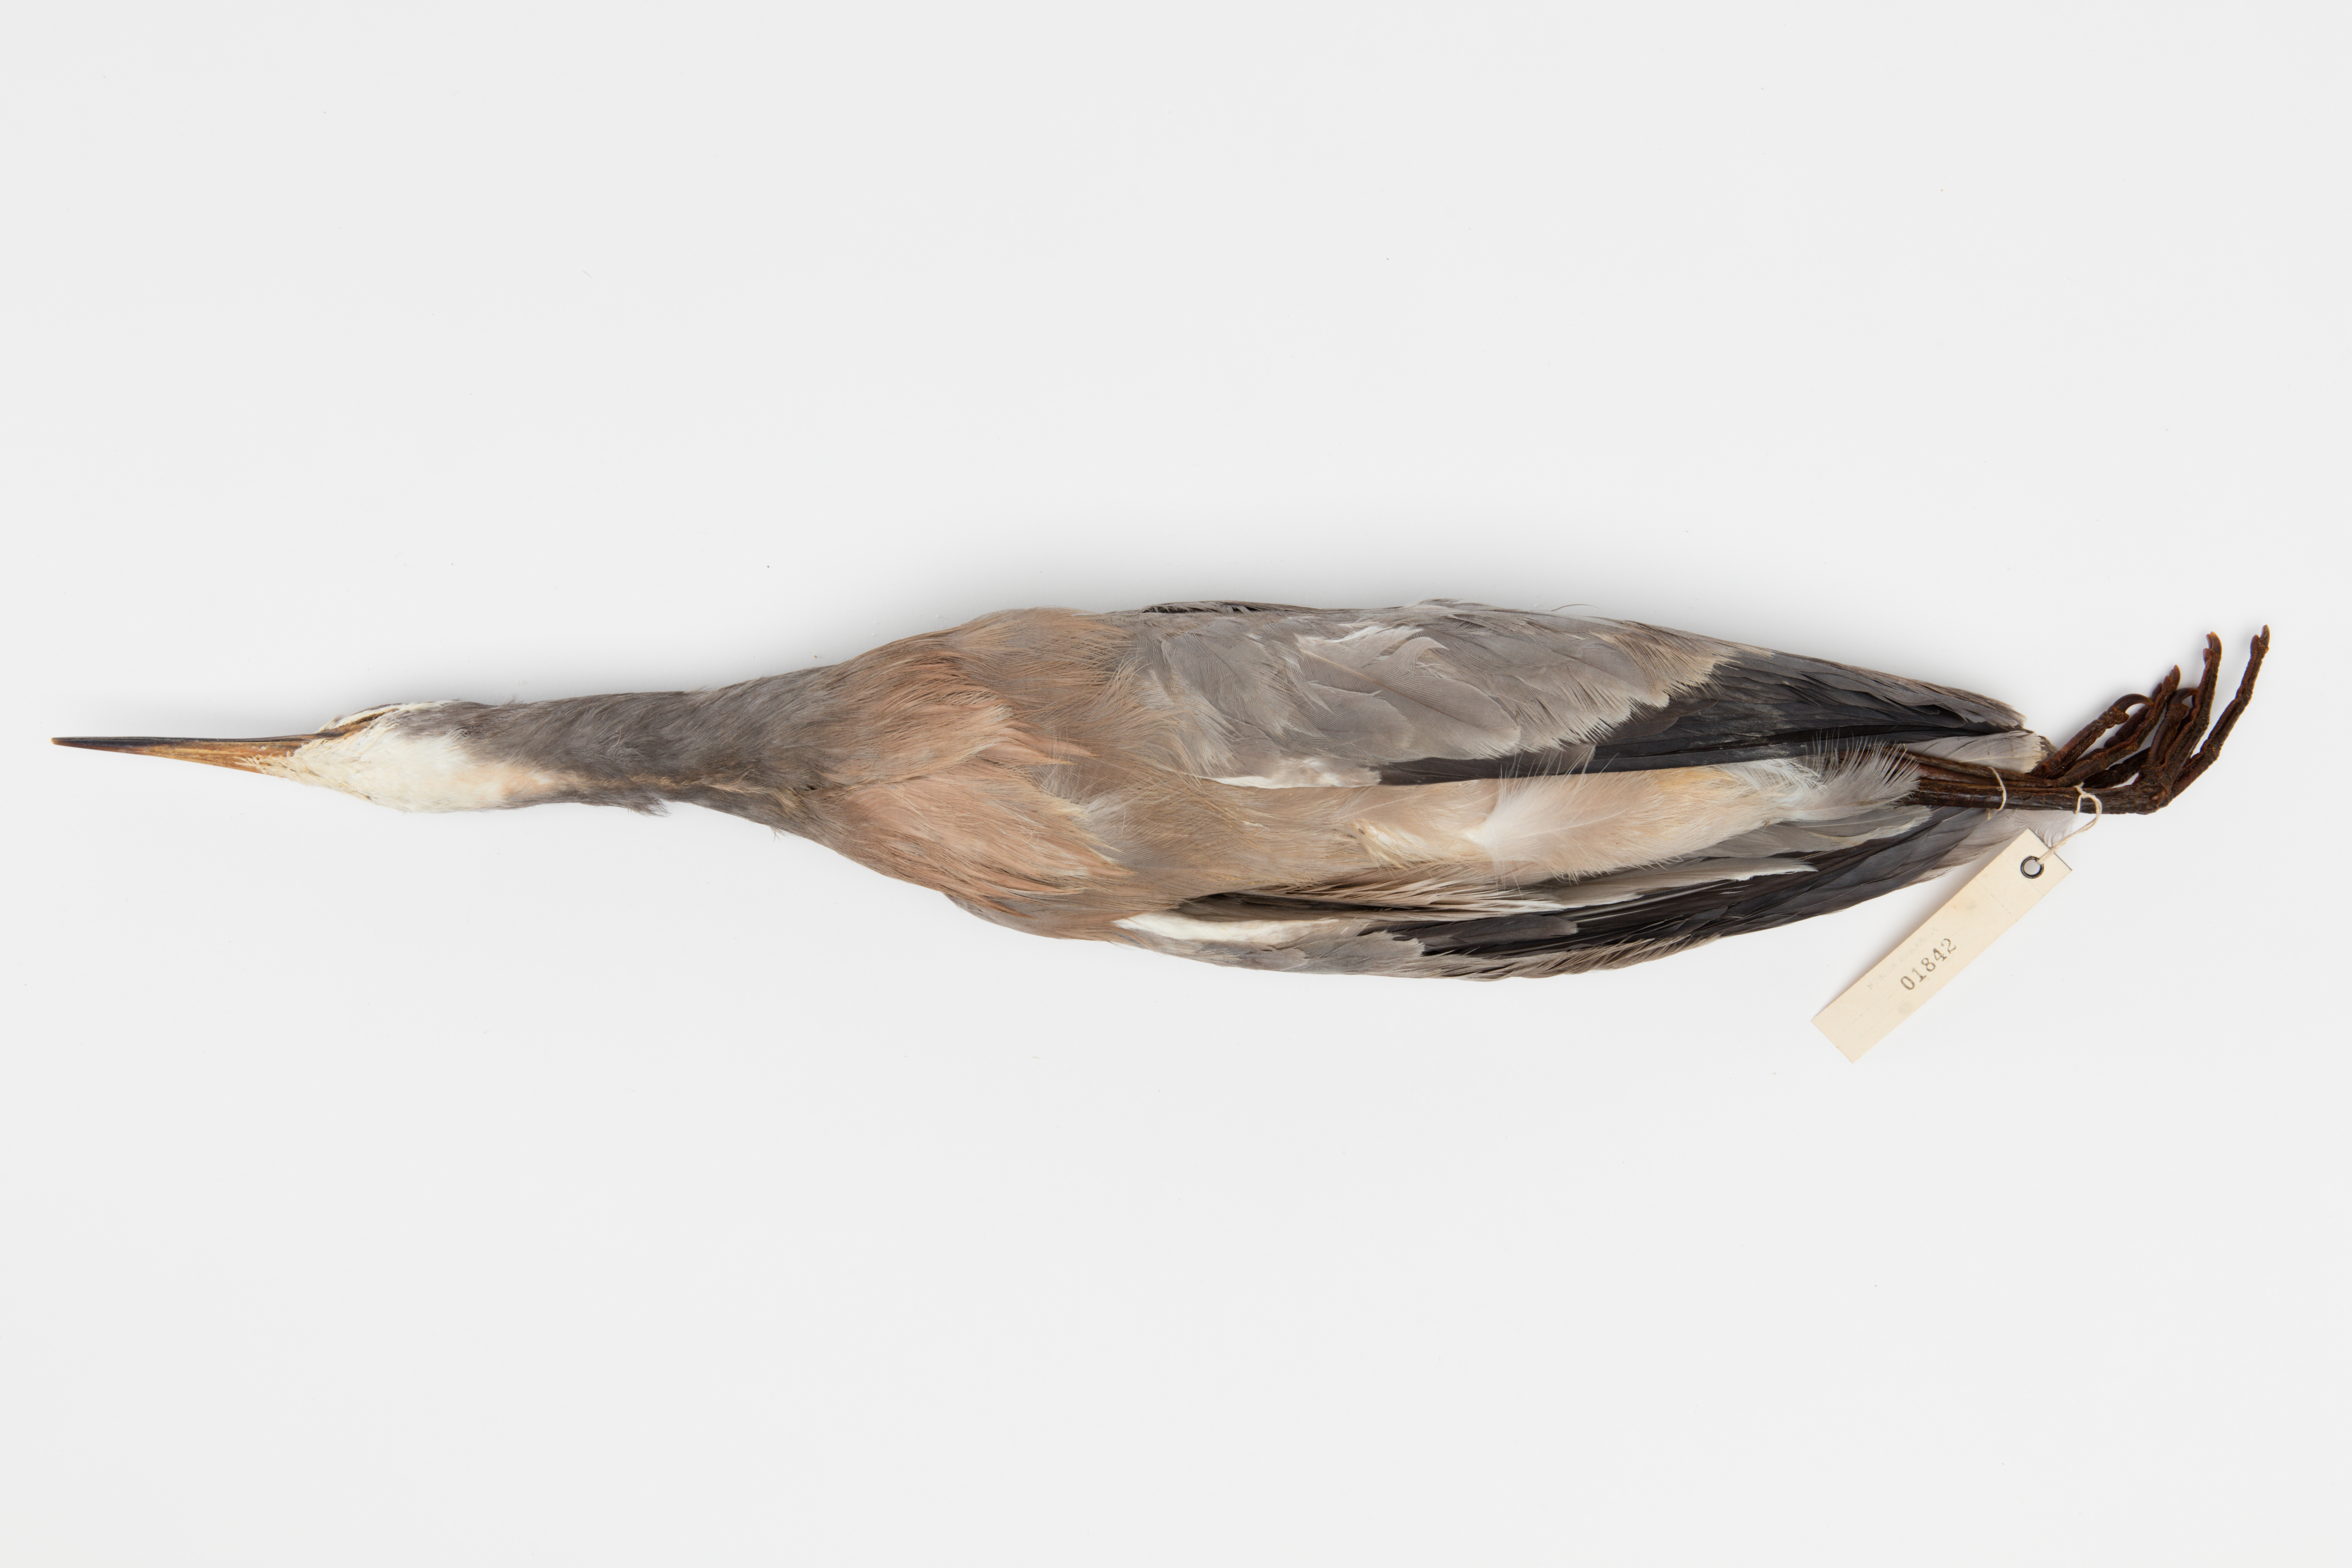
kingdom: Animalia
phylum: Chordata
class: Aves
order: Pelecaniformes
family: Ardeidae
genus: Egretta
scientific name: Egretta novaehollandiae
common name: White-faced heron
